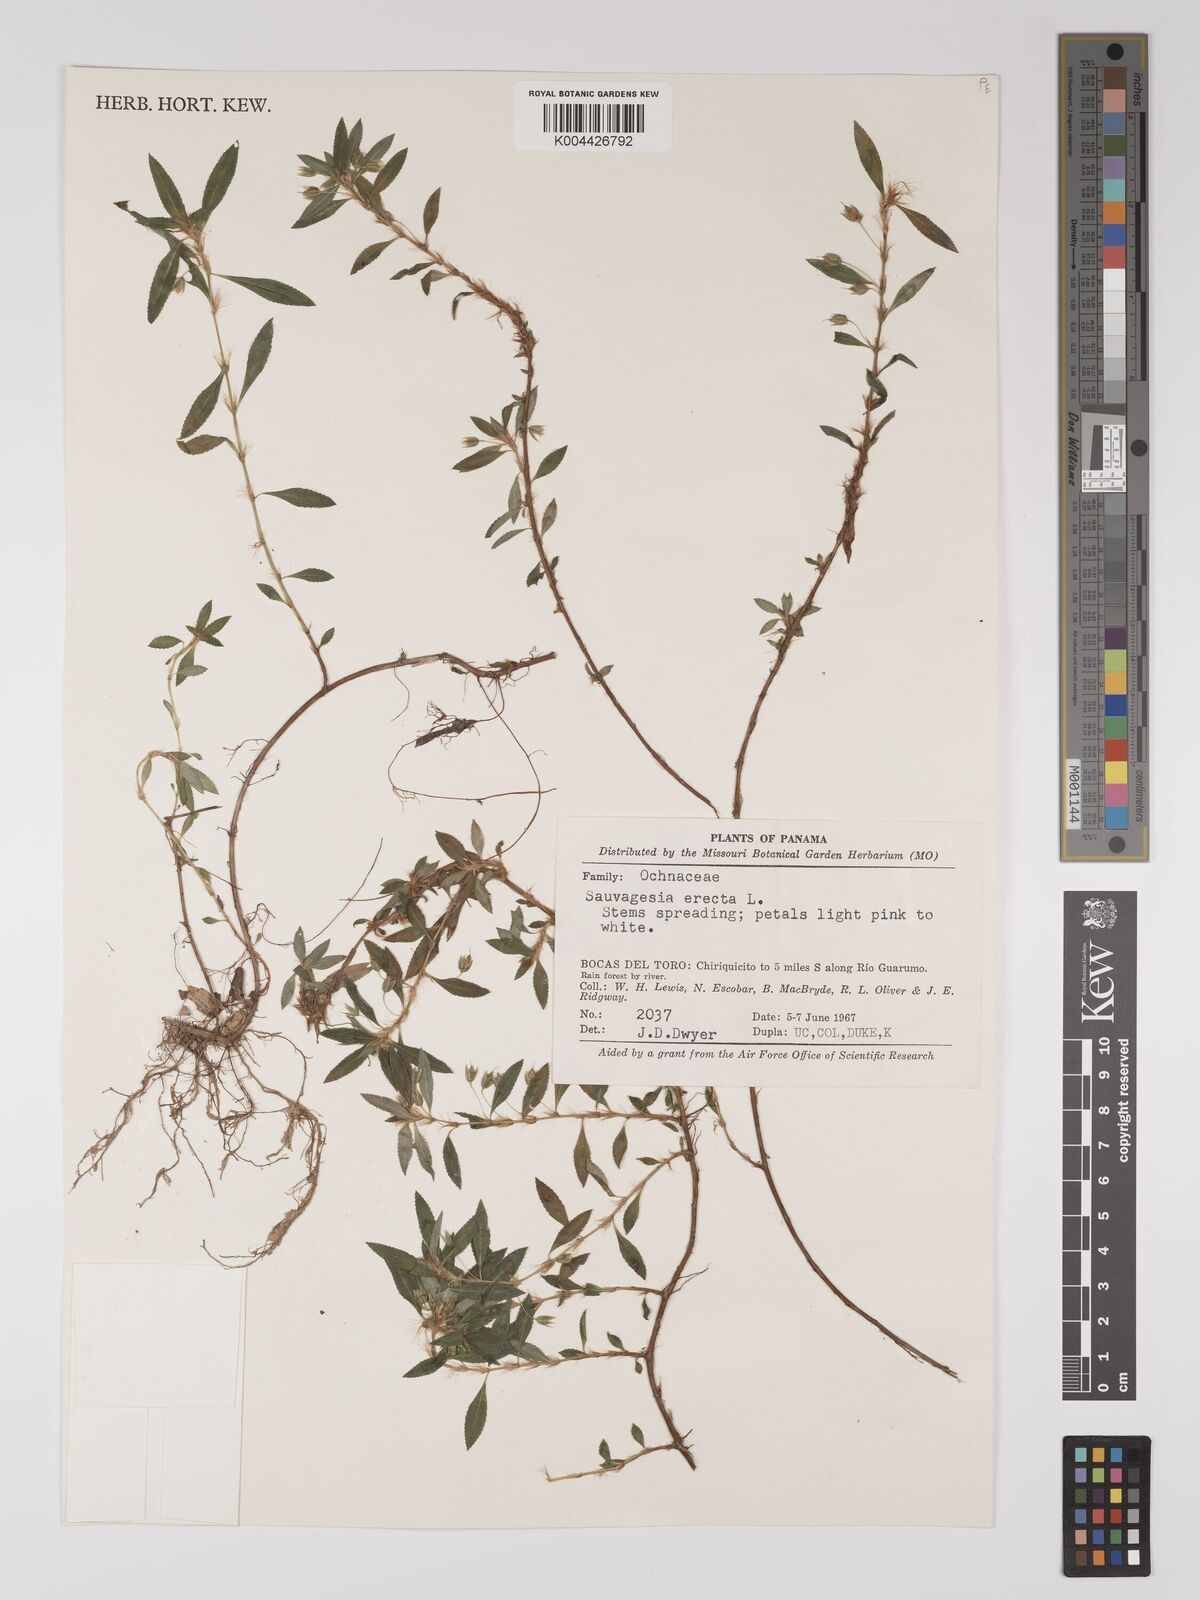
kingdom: Plantae
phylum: Tracheophyta
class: Magnoliopsida
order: Malpighiales
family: Ochnaceae
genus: Sauvagesia
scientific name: Sauvagesia erecta
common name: Creole tea
